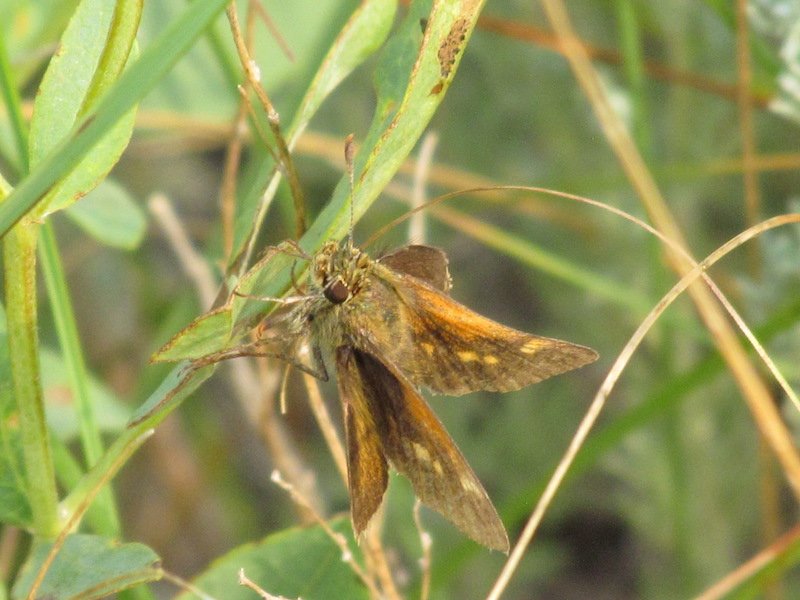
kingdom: Animalia
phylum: Arthropoda
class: Insecta
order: Lepidoptera
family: Hesperiidae
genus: Polites
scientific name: Polites themistocles
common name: Tawny-edged Skipper
